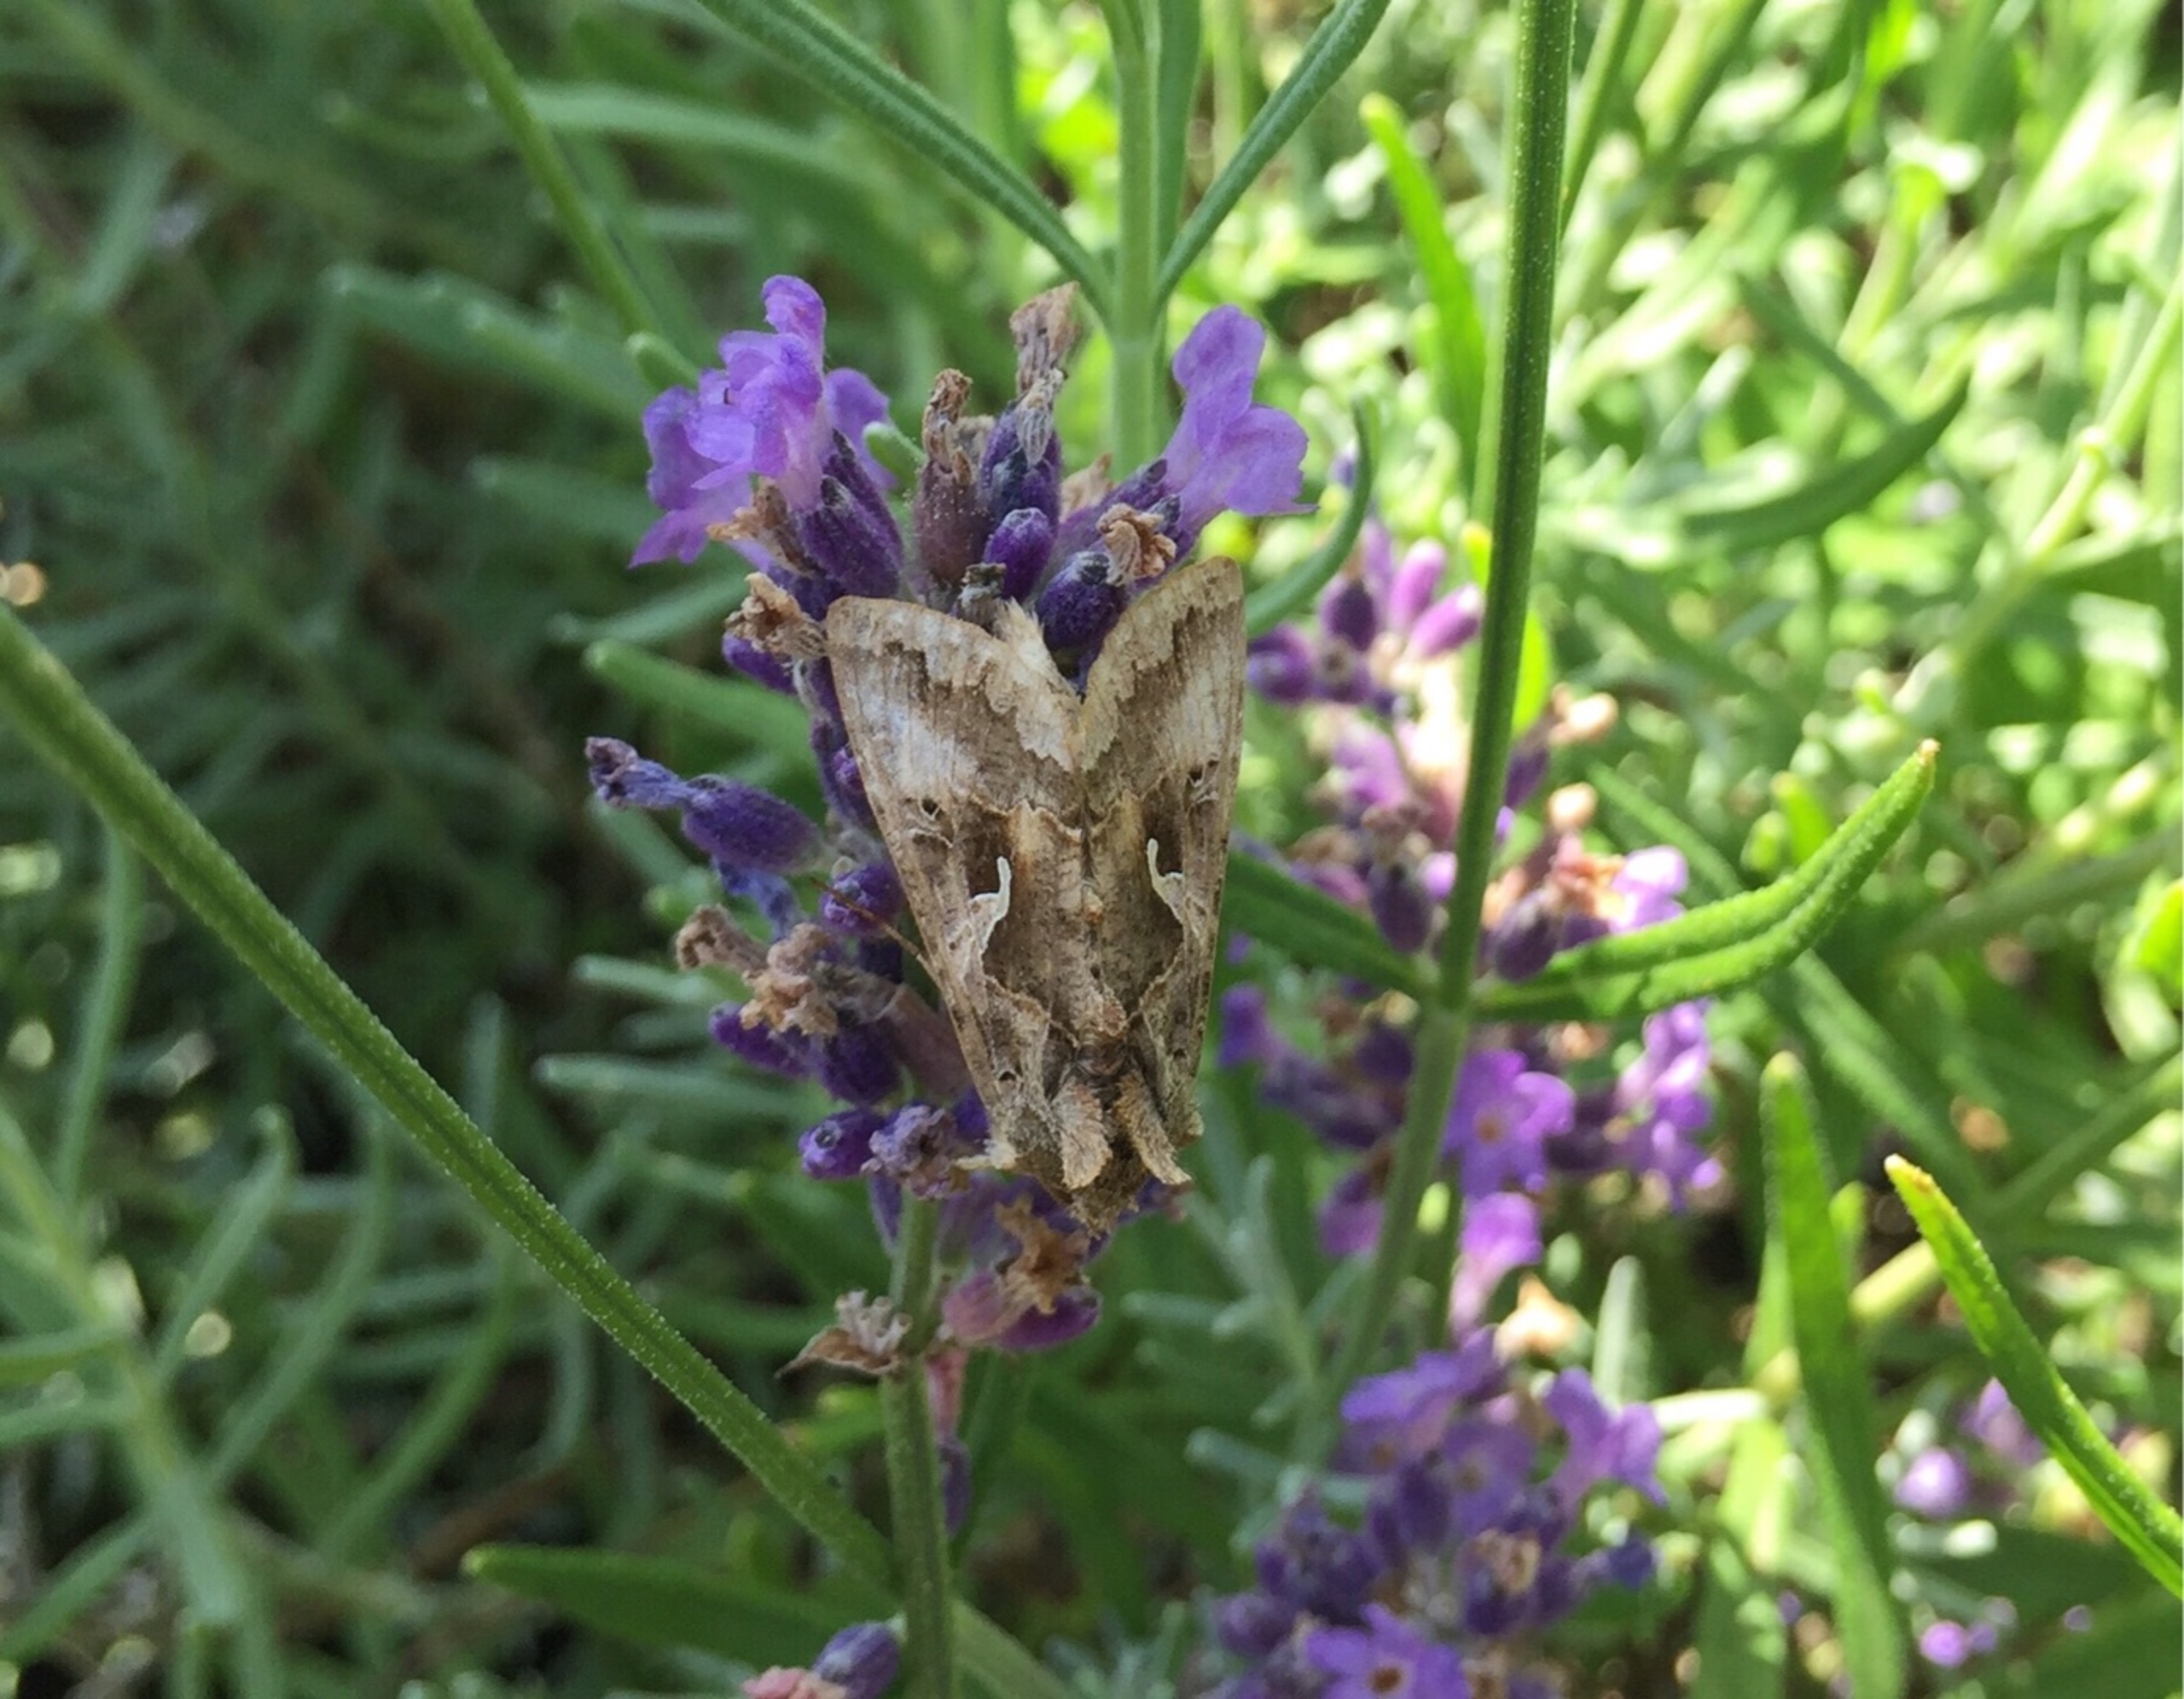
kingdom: Animalia
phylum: Arthropoda
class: Insecta
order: Lepidoptera
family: Noctuidae
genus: Autographa
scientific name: Autographa gamma
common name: Gammaugle
